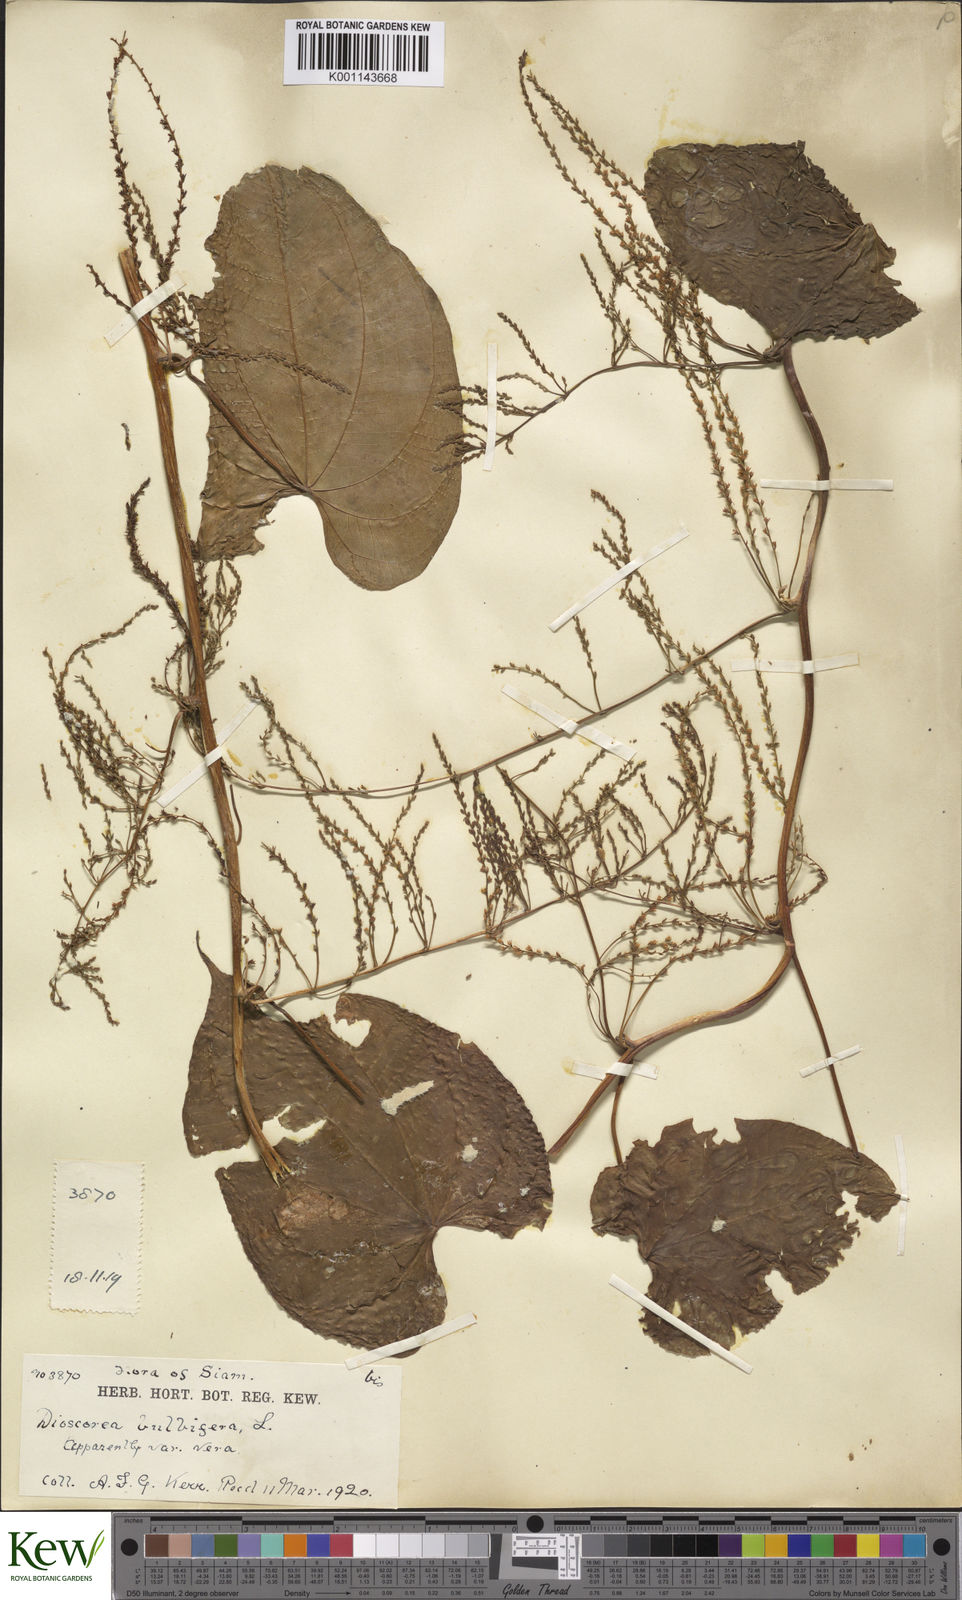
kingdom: Plantae
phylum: Tracheophyta
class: Liliopsida
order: Dioscoreales
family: Dioscoreaceae
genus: Dioscorea
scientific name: Dioscorea bulbifera
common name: Air yam
